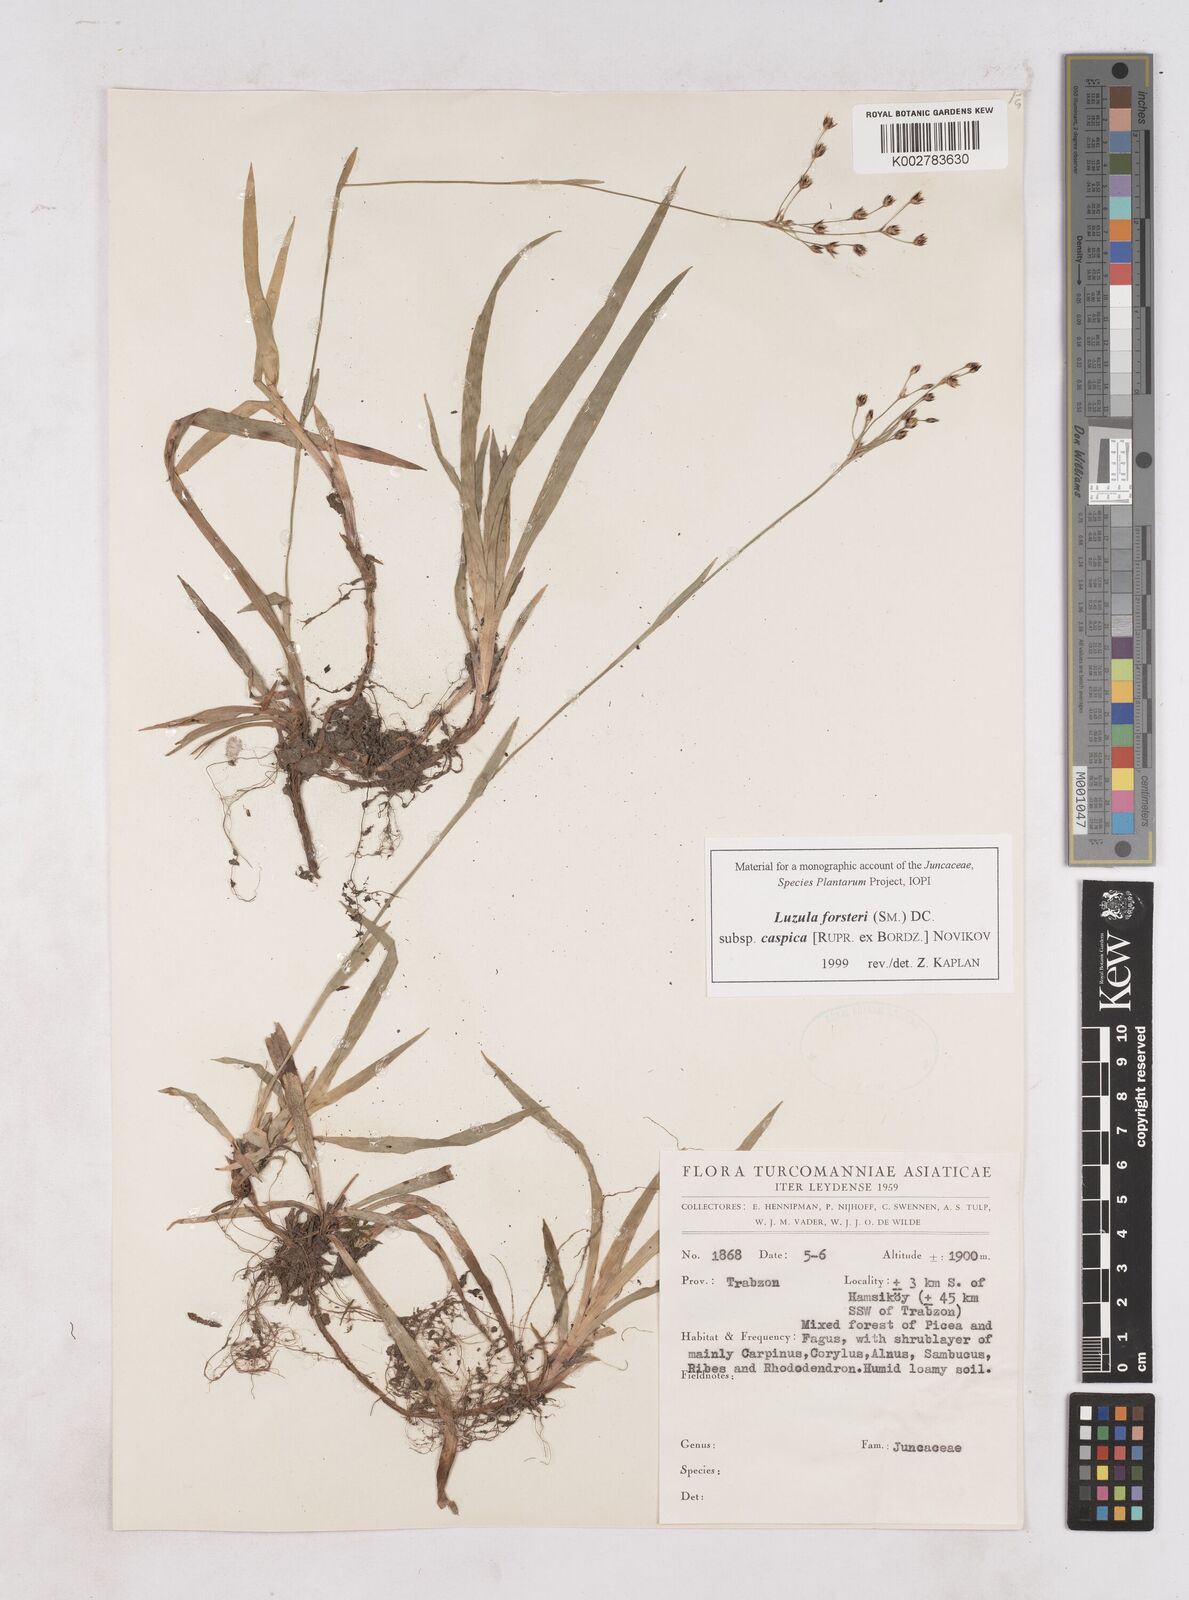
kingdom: Plantae
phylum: Tracheophyta
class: Liliopsida
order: Poales
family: Juncaceae
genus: Luzula
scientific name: Luzula forsteri
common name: Southern wood-rush
